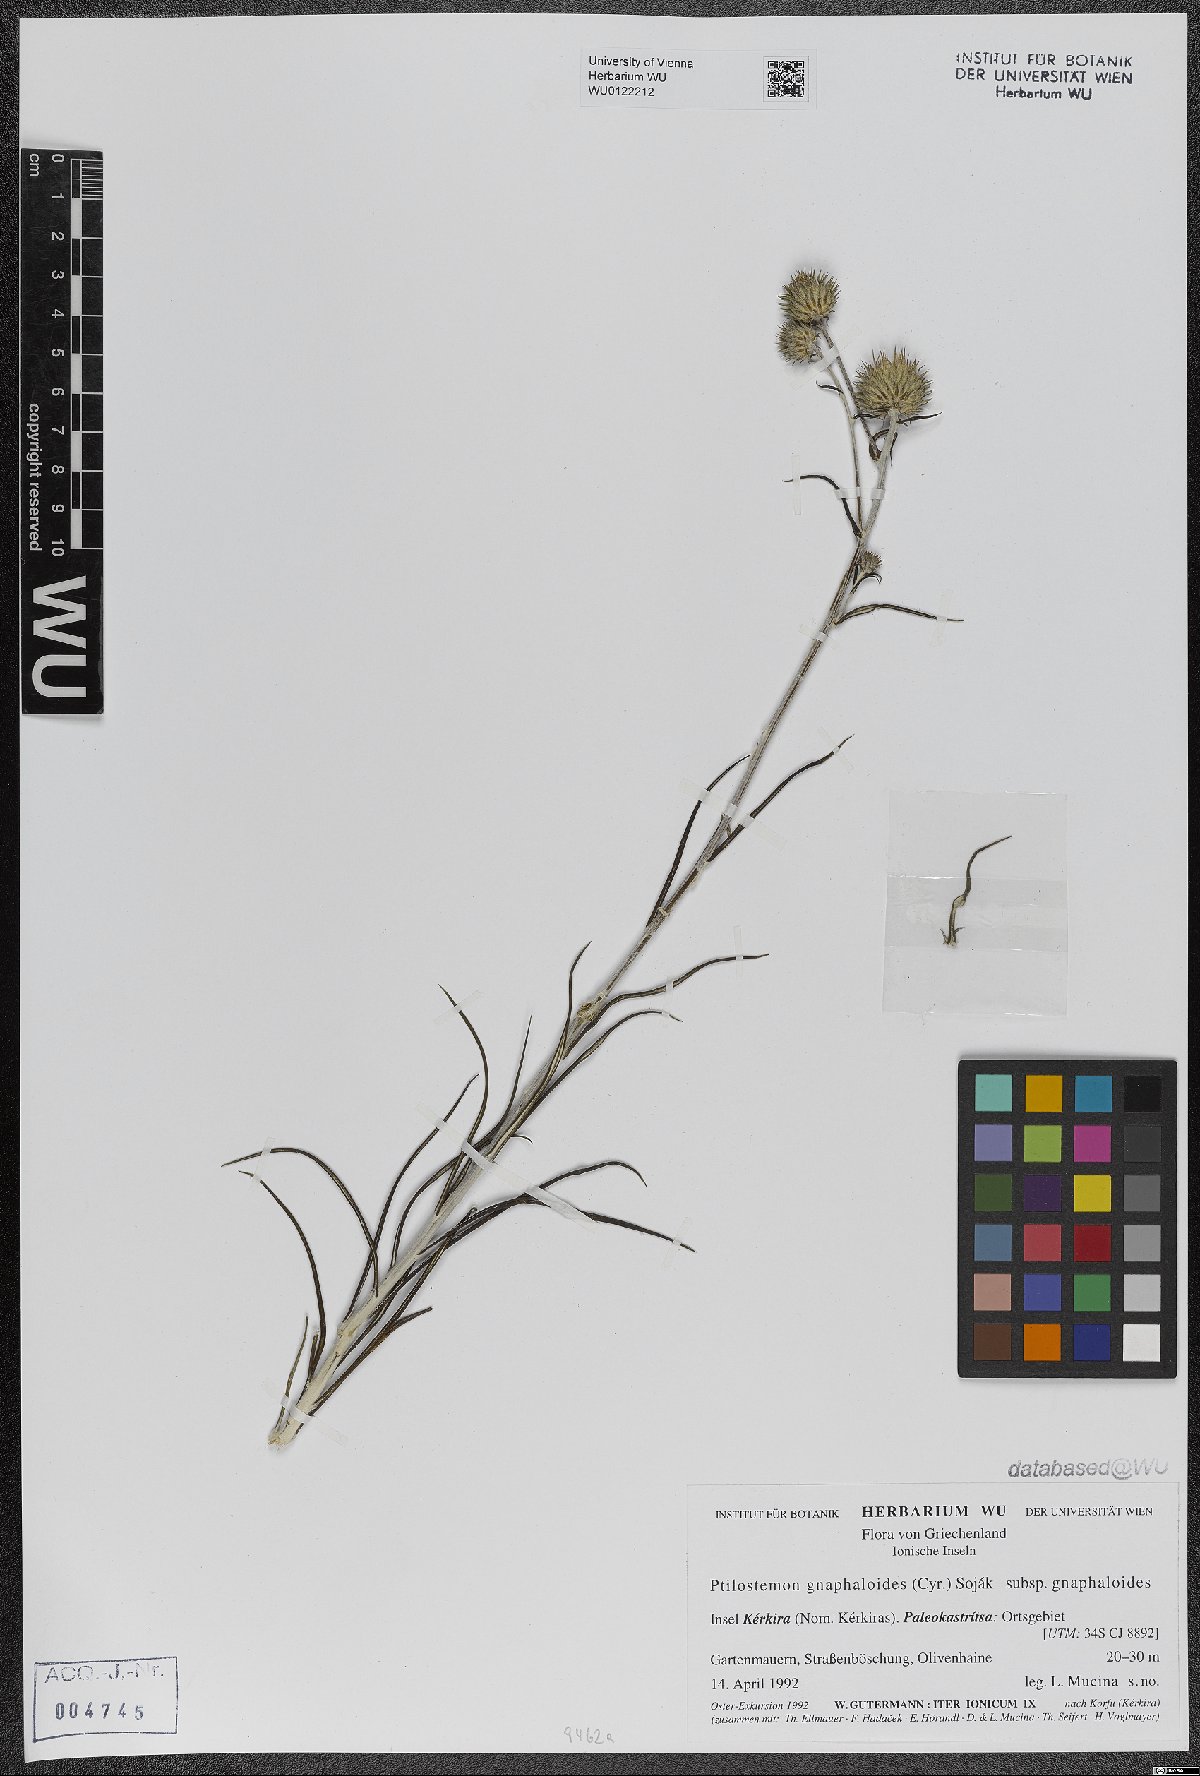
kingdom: Plantae
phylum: Tracheophyta
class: Magnoliopsida
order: Asterales
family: Asteraceae
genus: Ptilostemon
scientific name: Ptilostemon gnaphaloides
